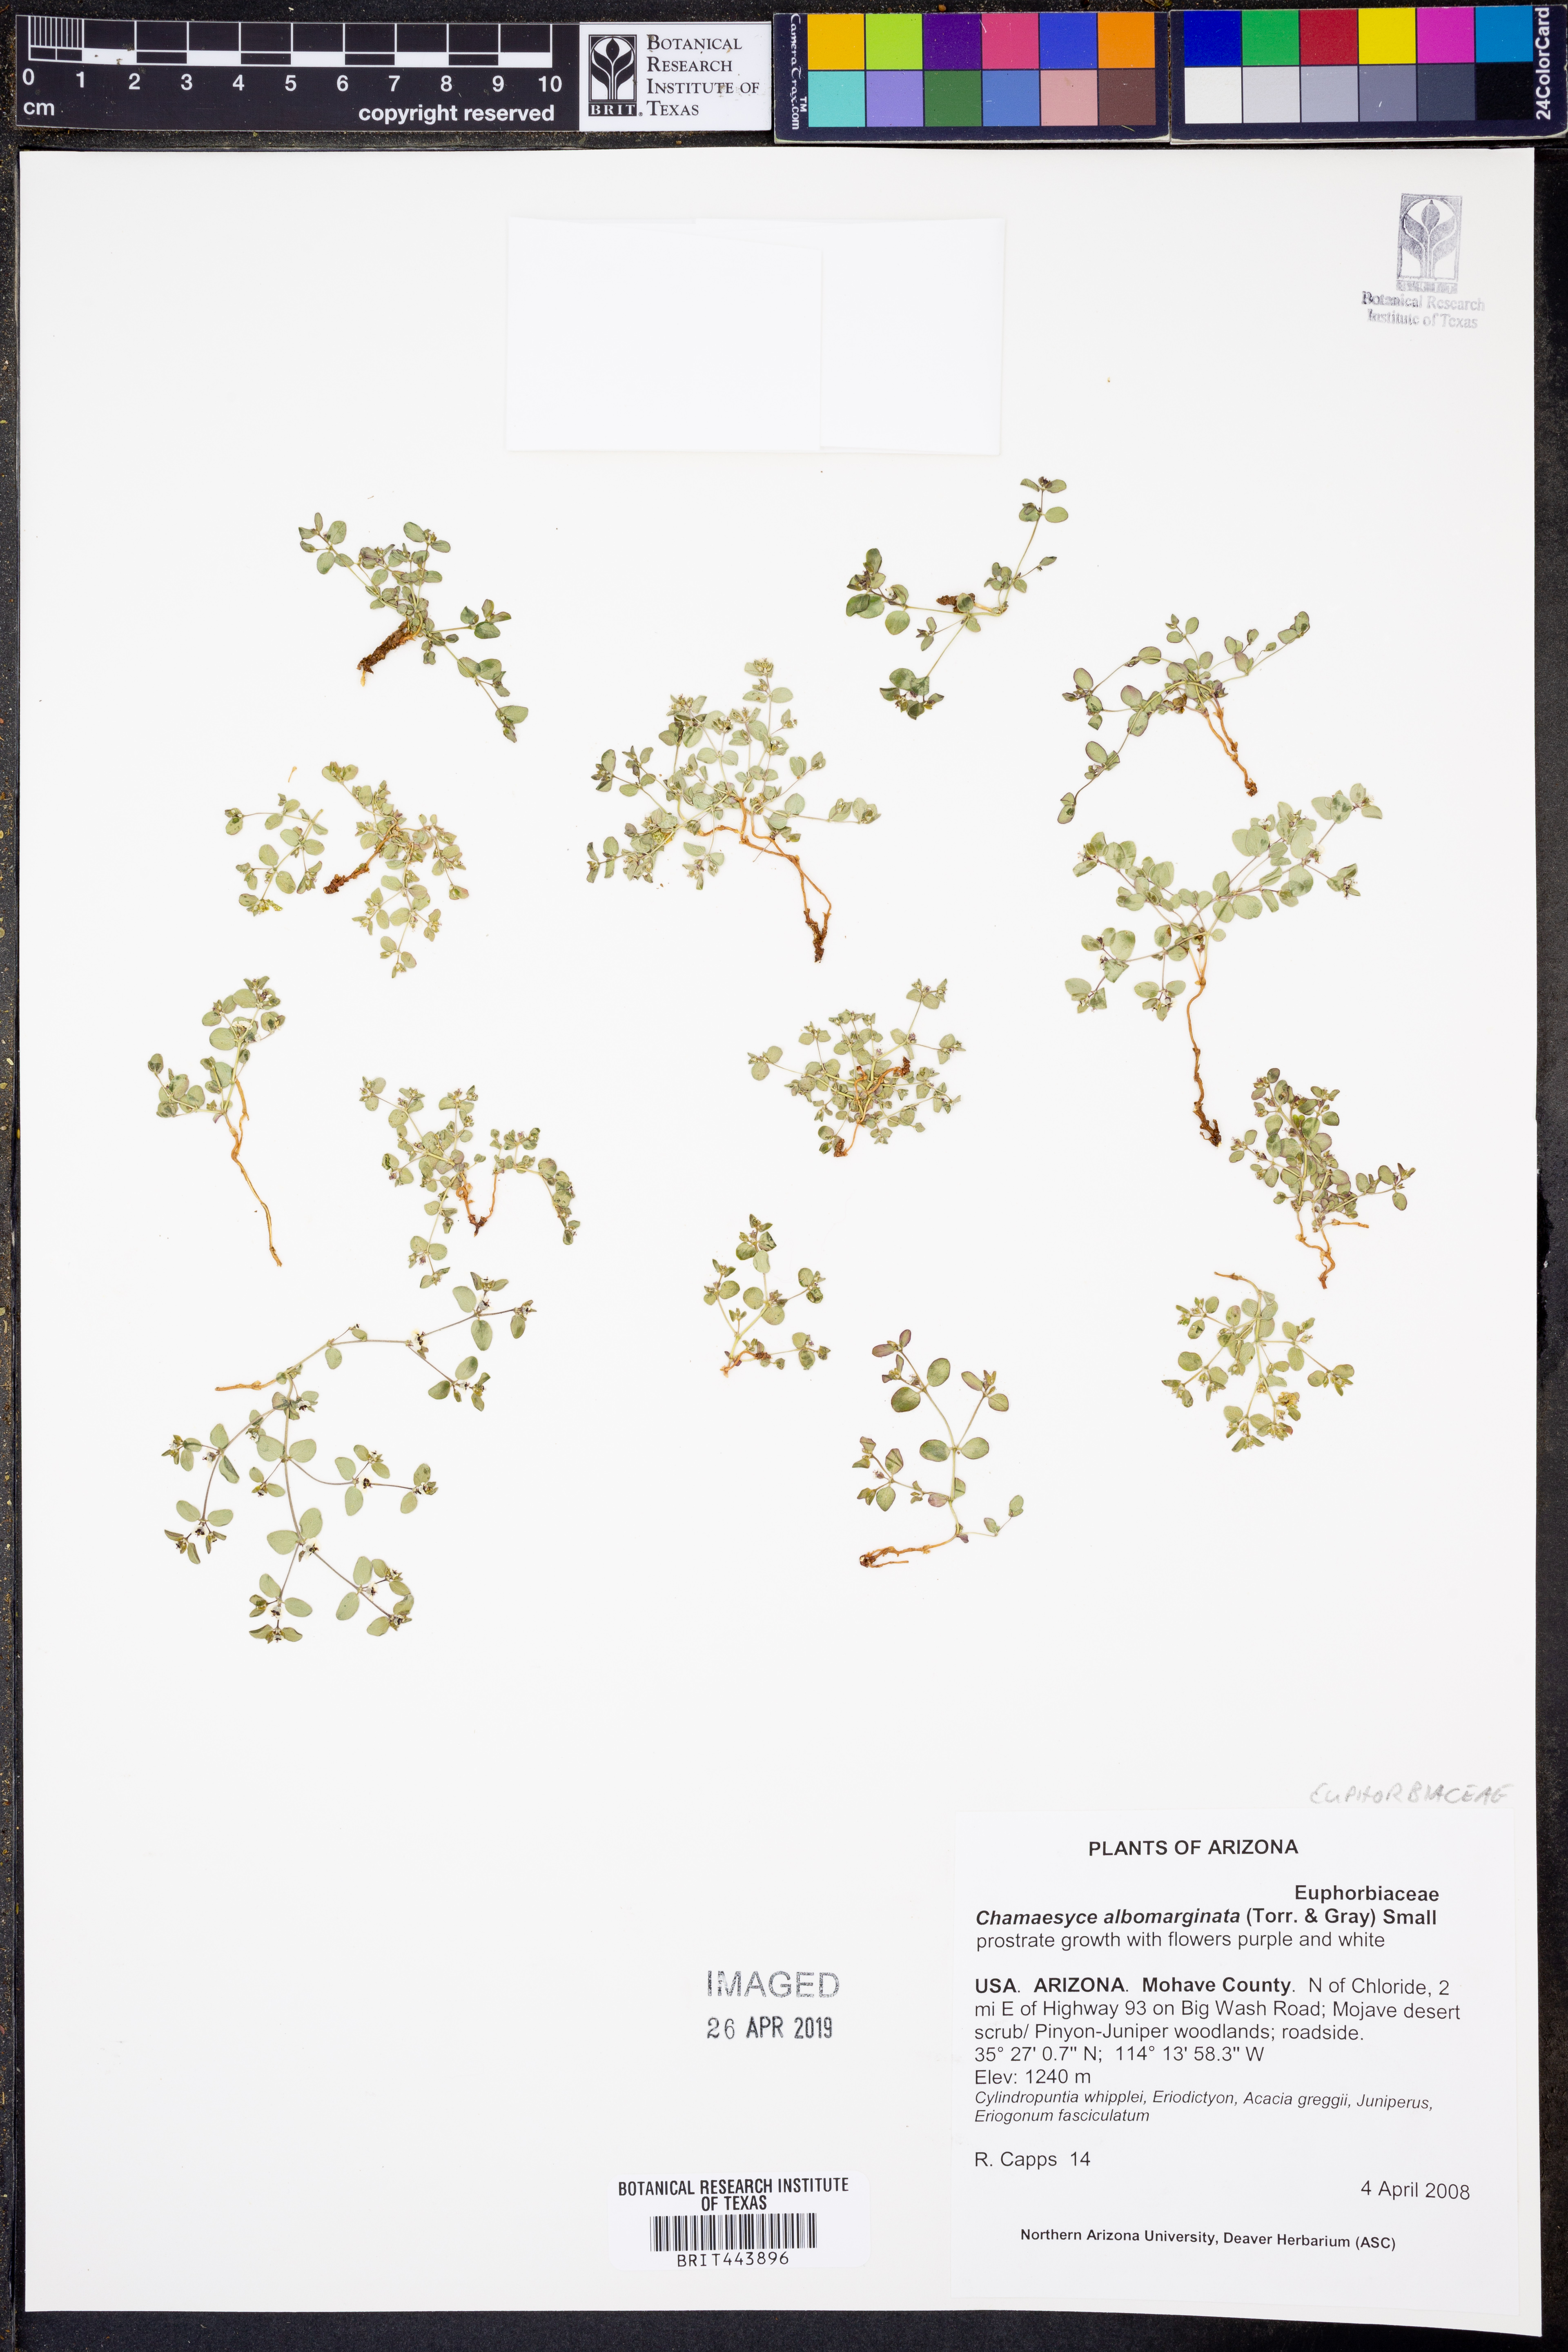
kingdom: Plantae
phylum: Tracheophyta
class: Magnoliopsida
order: Malpighiales
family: Euphorbiaceae
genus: Euphorbia
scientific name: Euphorbia albomarginata
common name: Whitemargin sandmat
